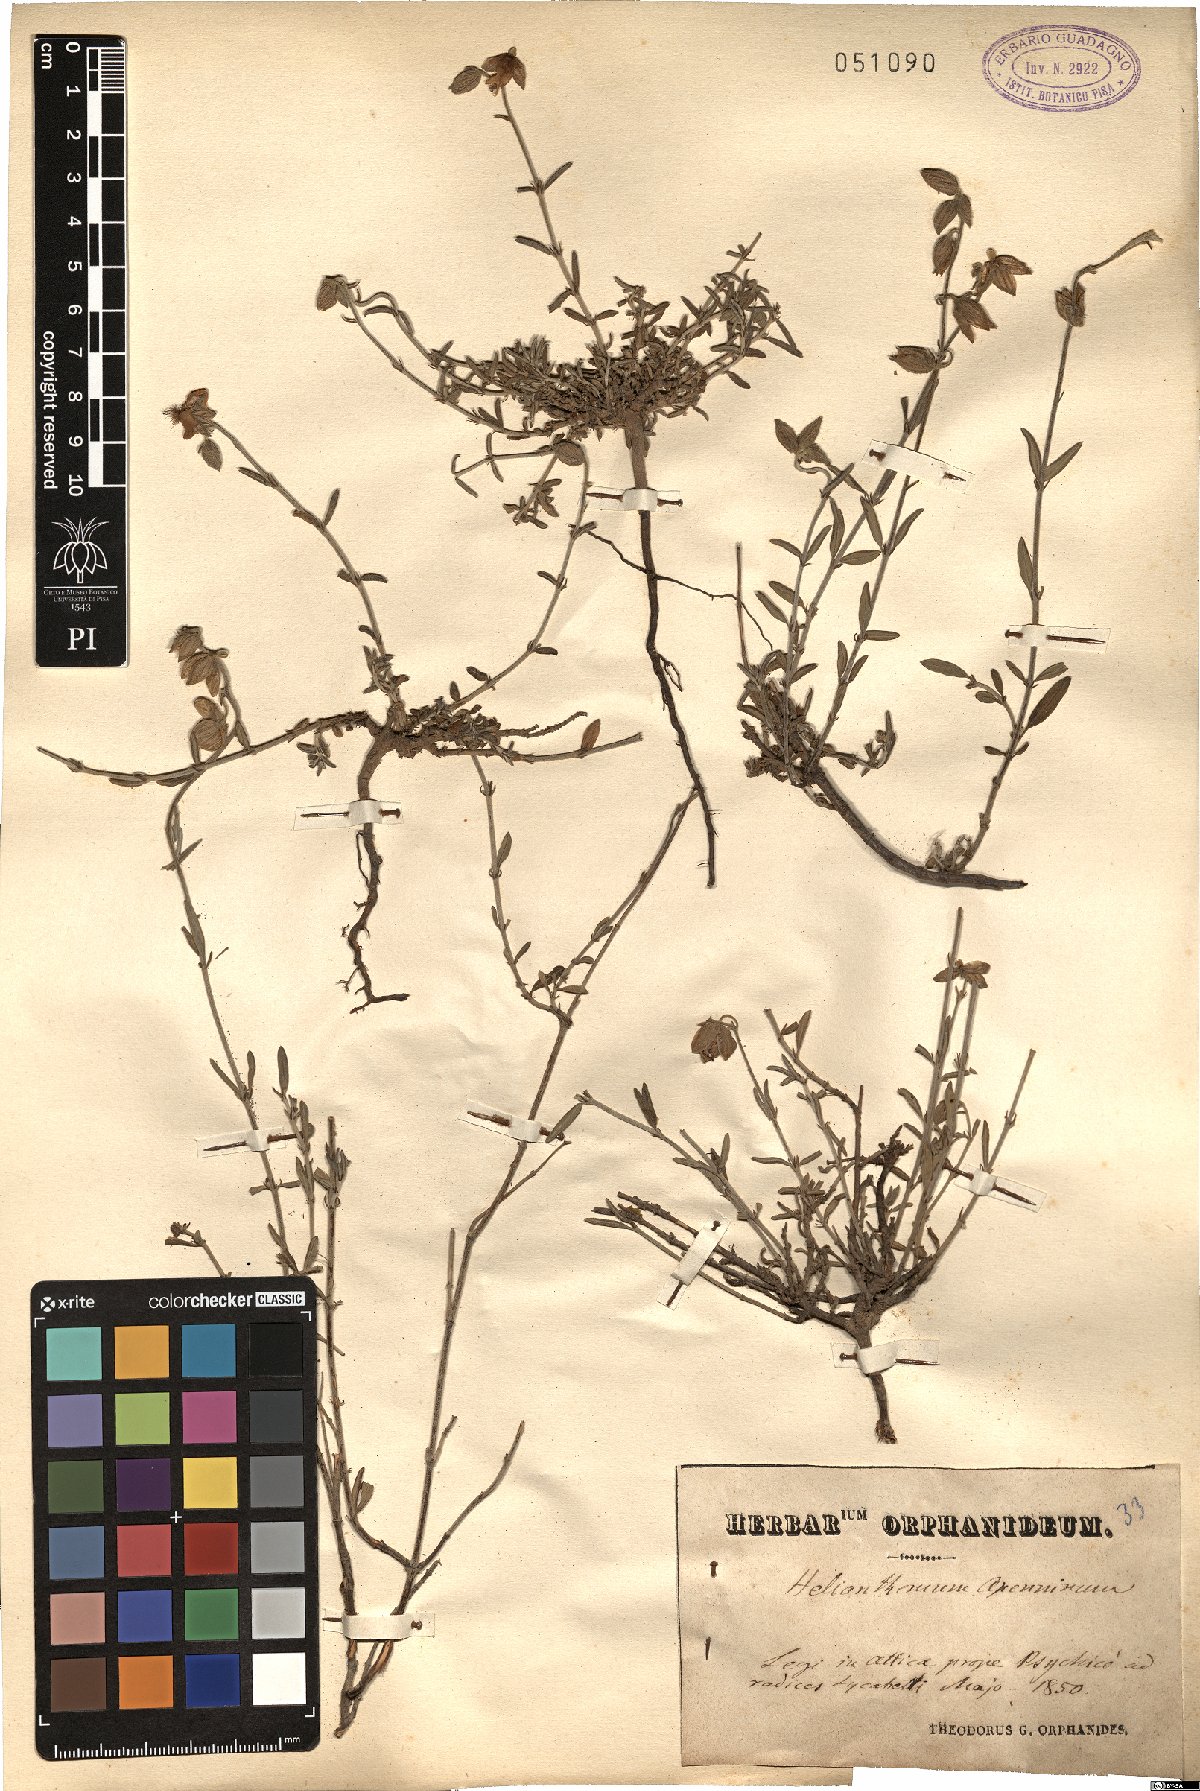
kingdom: Plantae
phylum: Tracheophyta
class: Magnoliopsida
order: Malvales
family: Cistaceae
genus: Helianthemum
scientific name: Helianthemum apenninum
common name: White rock-rose
